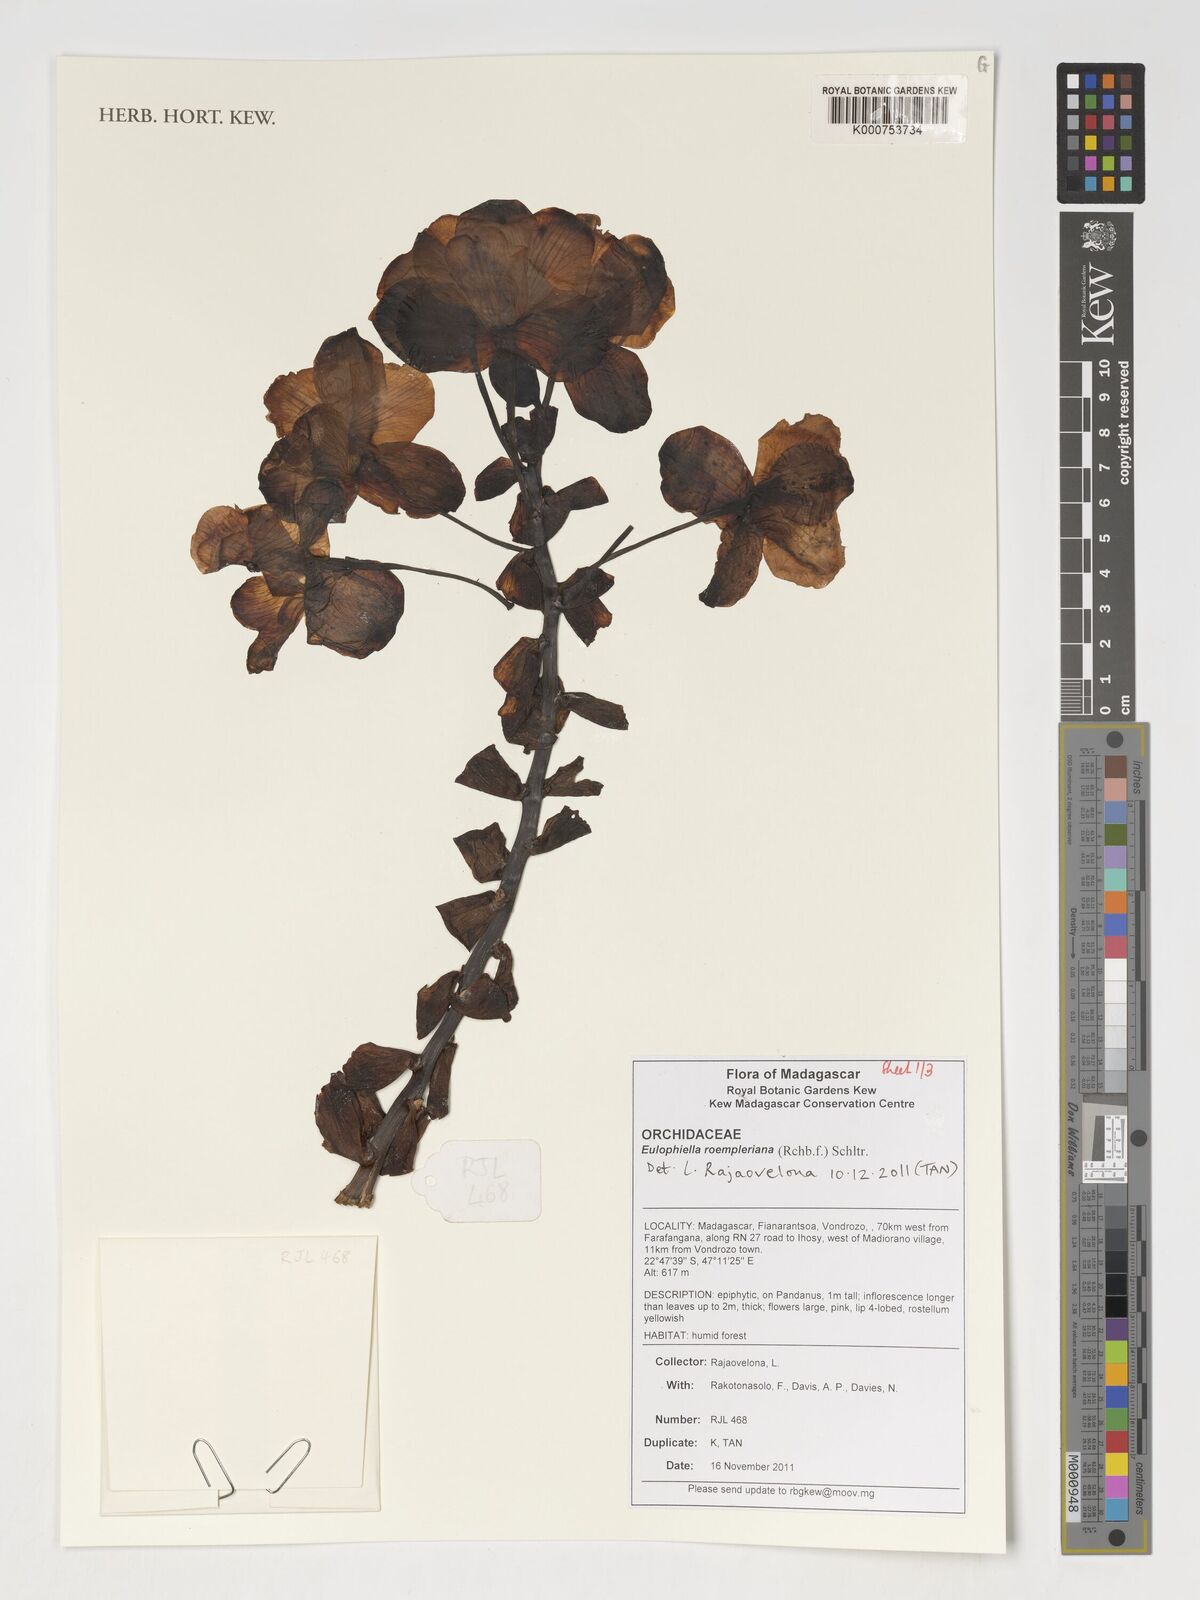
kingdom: Plantae
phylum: Tracheophyta
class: Liliopsida
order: Asparagales
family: Orchidaceae
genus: Eulophia
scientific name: Eulophia roempleriana
